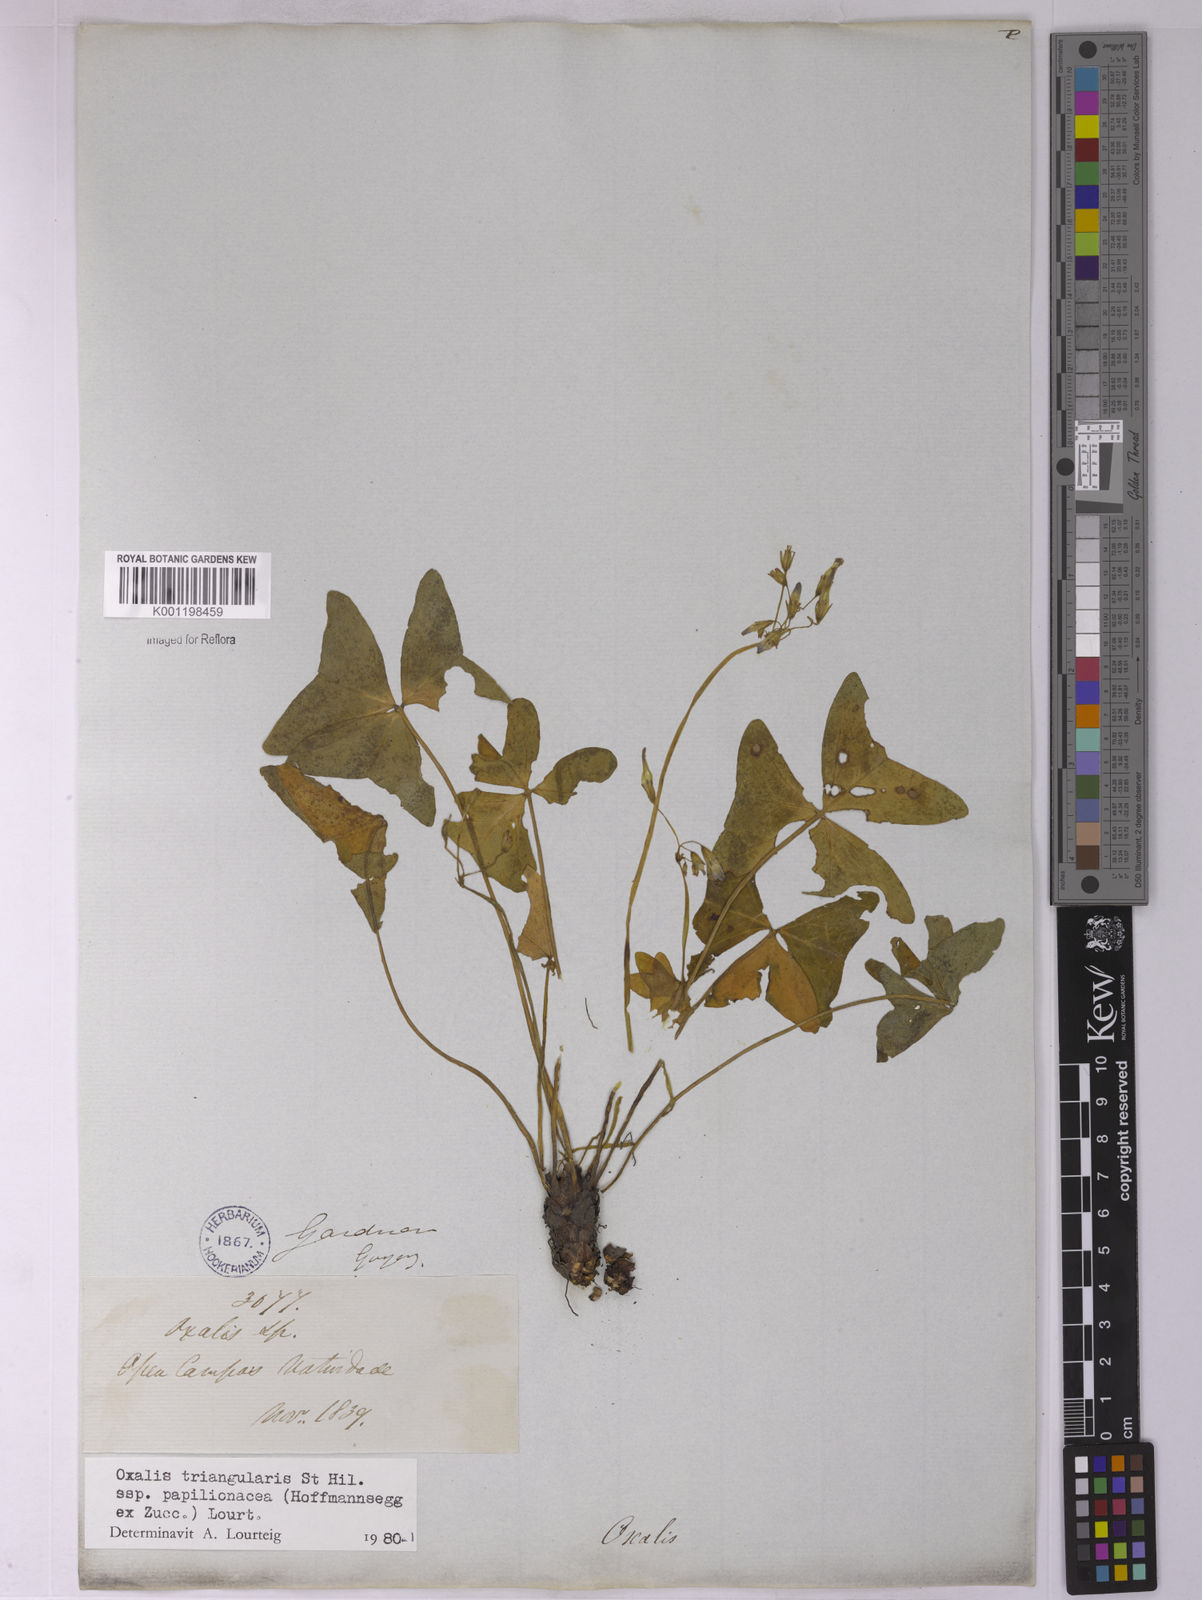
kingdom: Plantae
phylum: Tracheophyta
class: Magnoliopsida
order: Oxalidales
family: Oxalidaceae
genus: Oxalis
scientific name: Oxalis triangularis
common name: Wood sorrel
